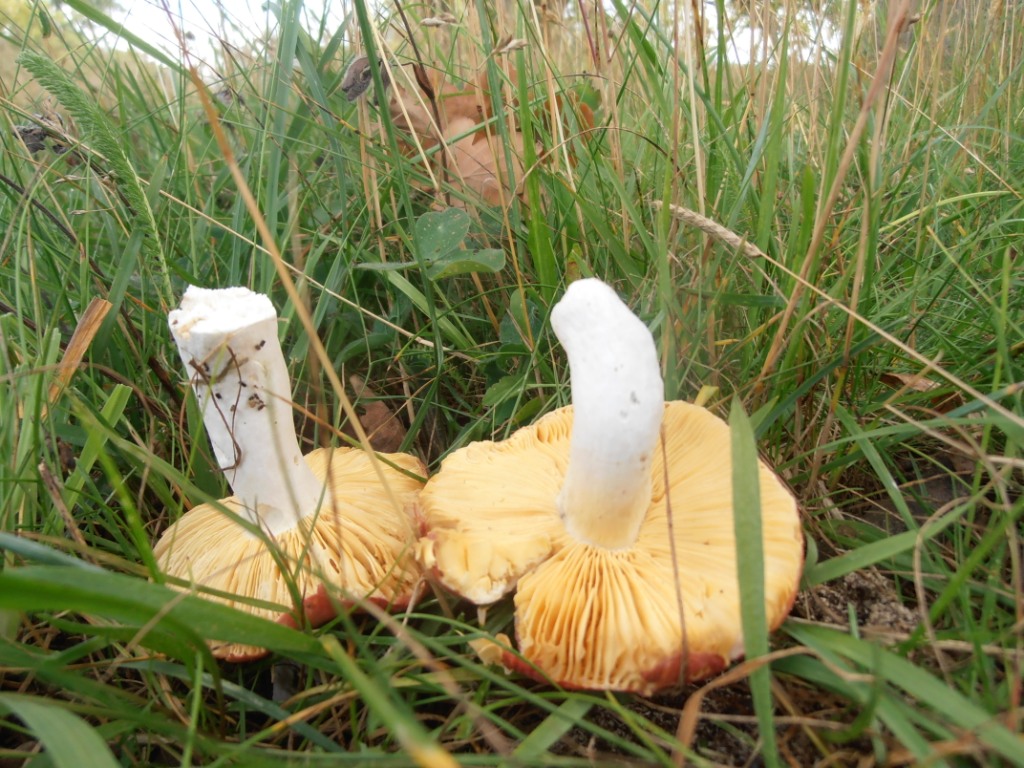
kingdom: Fungi
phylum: Basidiomycota
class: Agaricomycetes
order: Russulales
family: Russulaceae
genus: Russula
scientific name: Russula fontqueri
